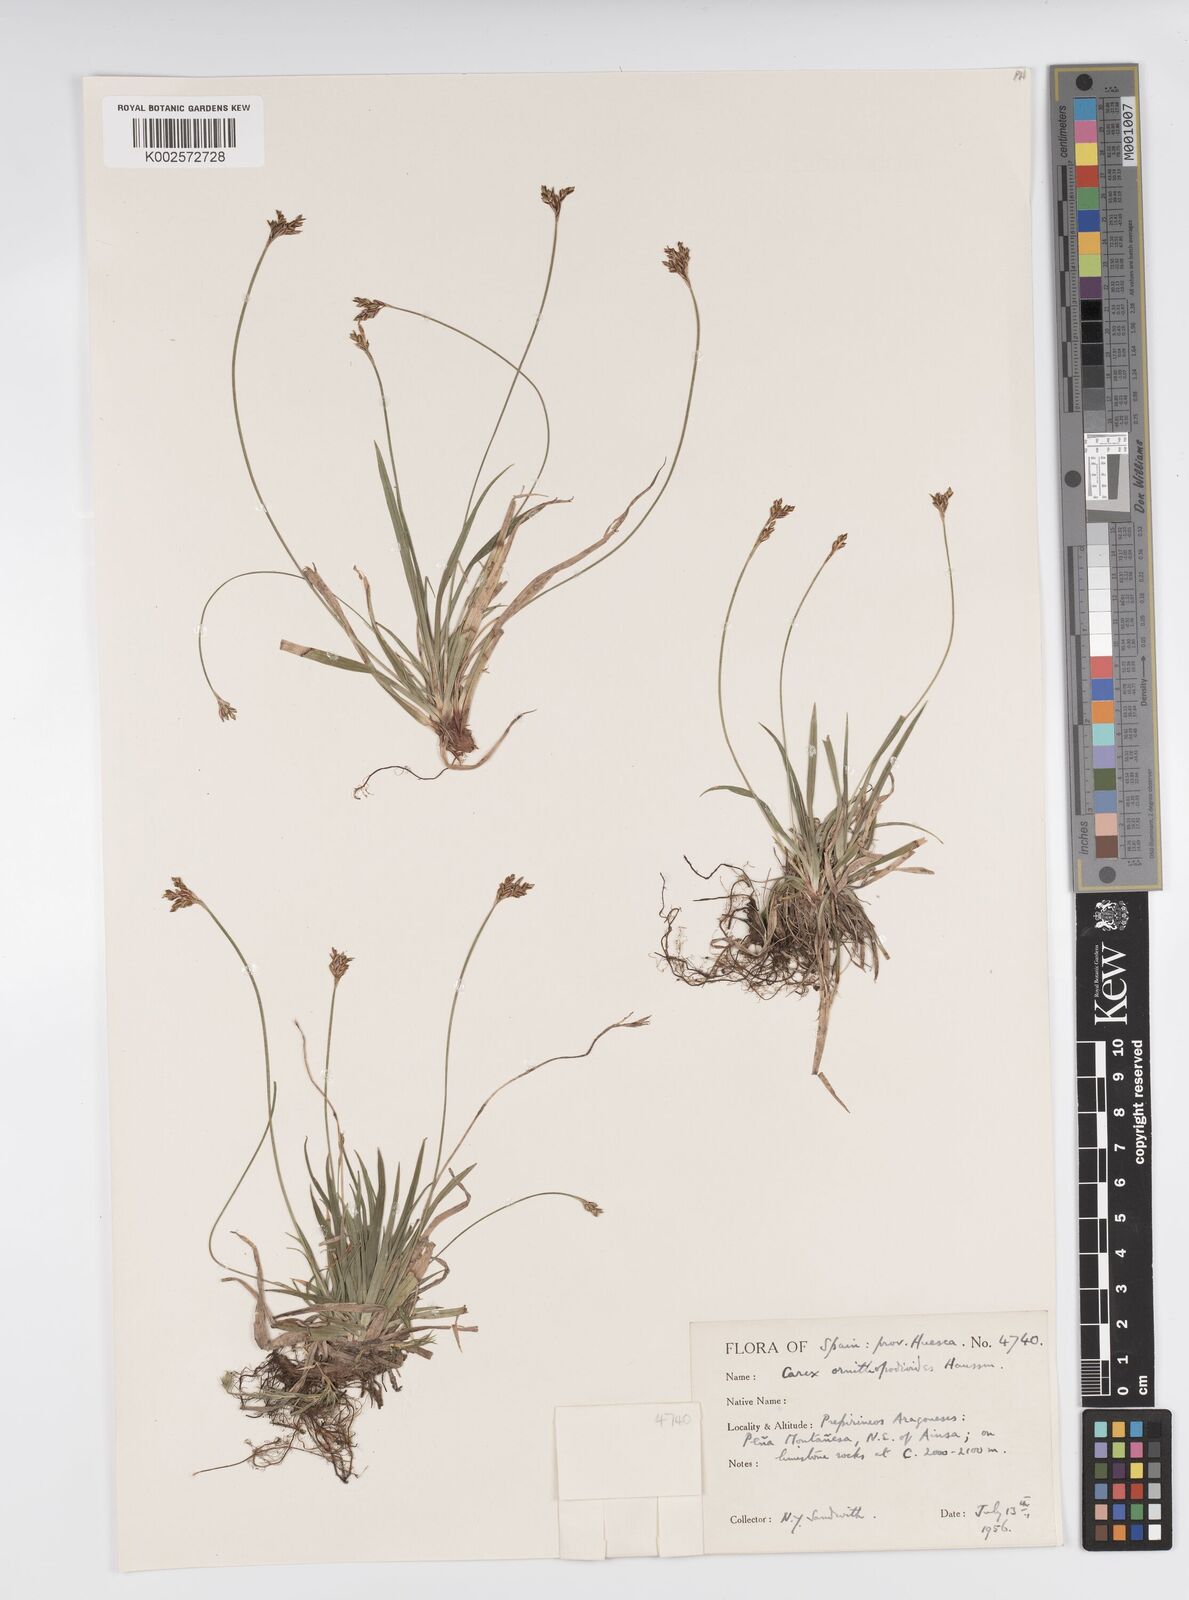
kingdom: Plantae
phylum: Tracheophyta
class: Liliopsida
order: Poales
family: Cyperaceae
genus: Carex
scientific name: Carex ornithopoda
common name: Bird's-foot sedge
